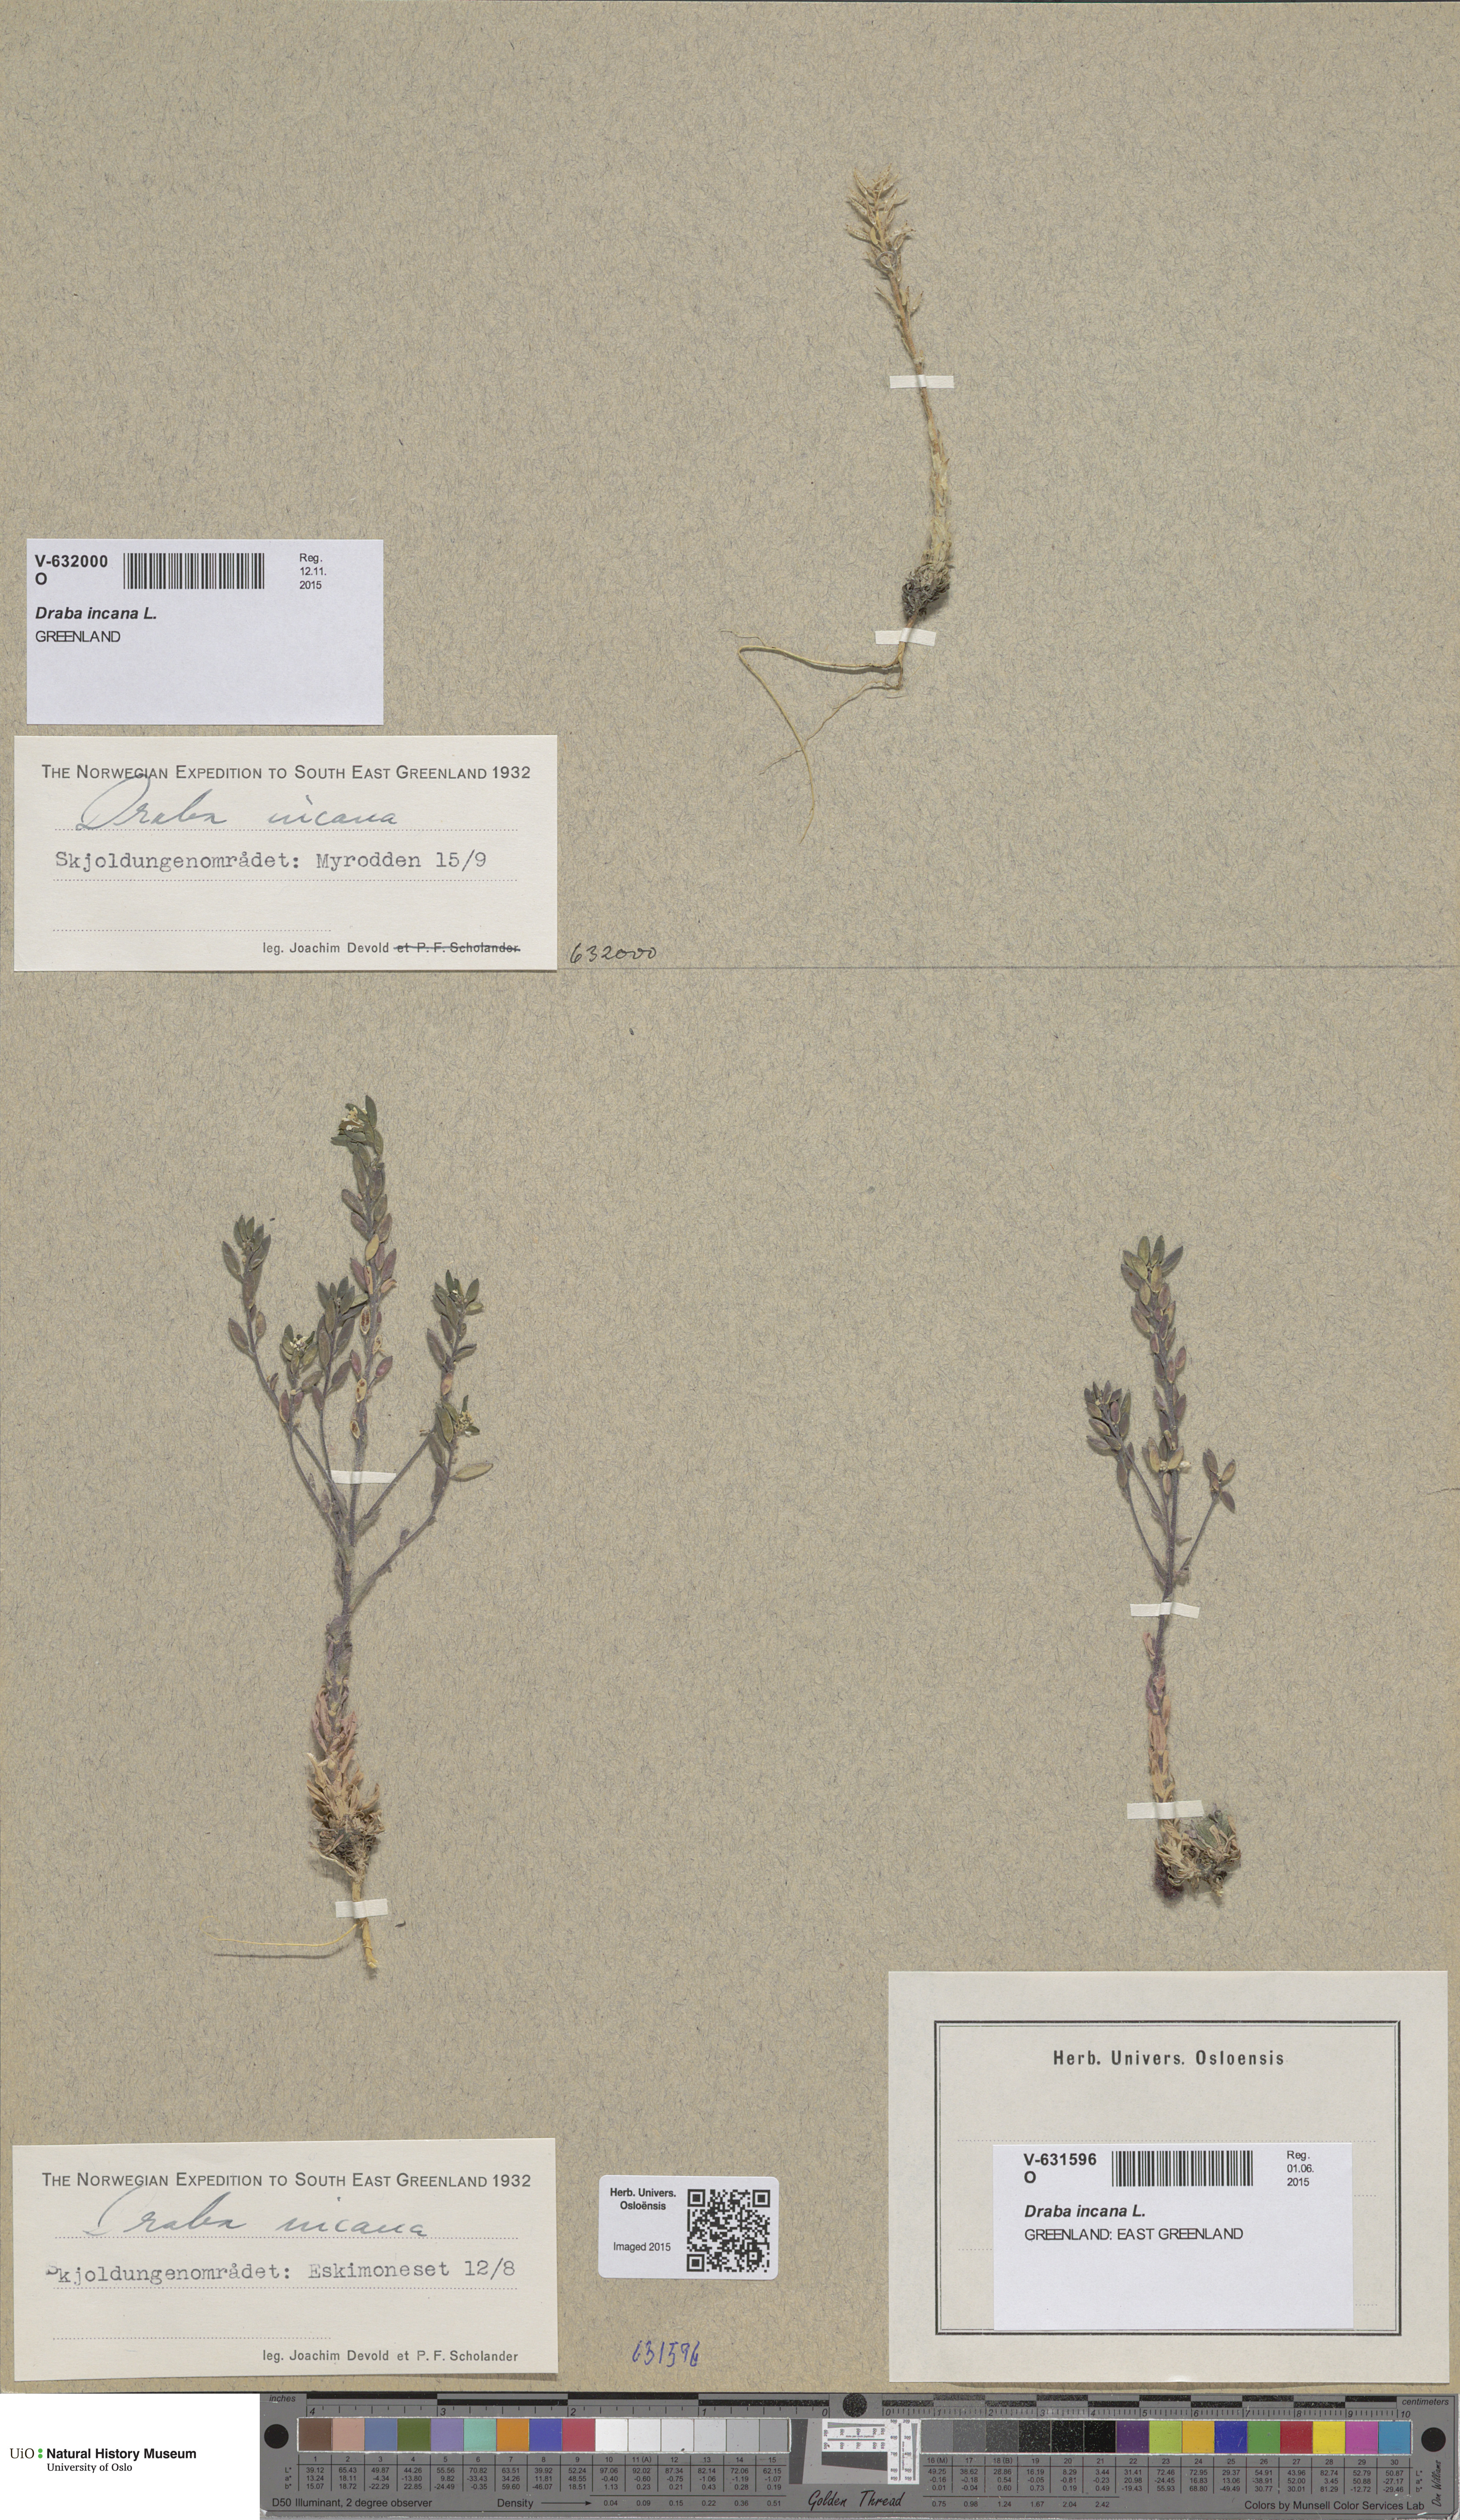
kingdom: Plantae
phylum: Tracheophyta
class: Magnoliopsida
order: Brassicales
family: Brassicaceae
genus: Draba
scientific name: Draba incana
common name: Hoary whitlow-grass
